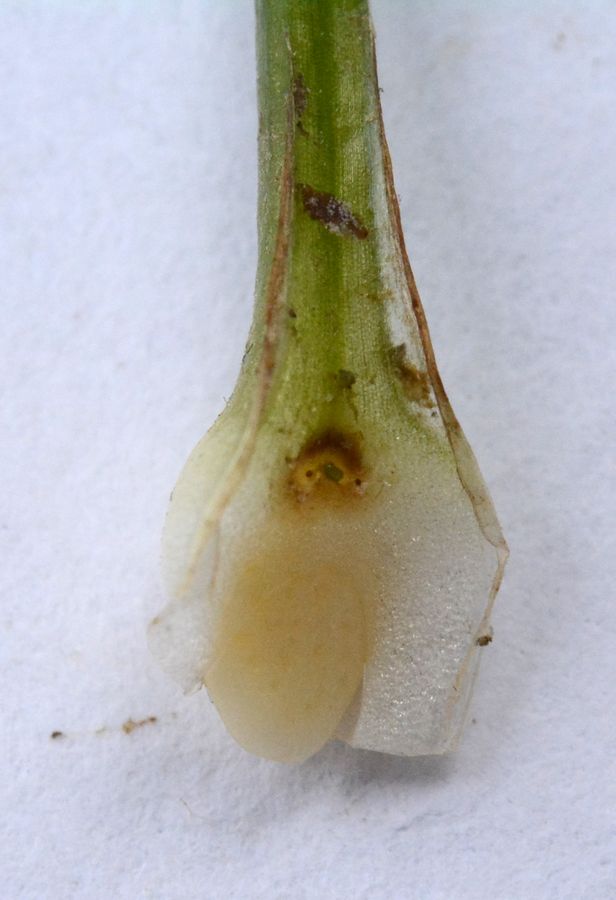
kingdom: Plantae
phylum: Tracheophyta
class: Lycopodiopsida
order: Isoetales
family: Isoetaceae
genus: Isoetes
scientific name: Isoetes lacustris
